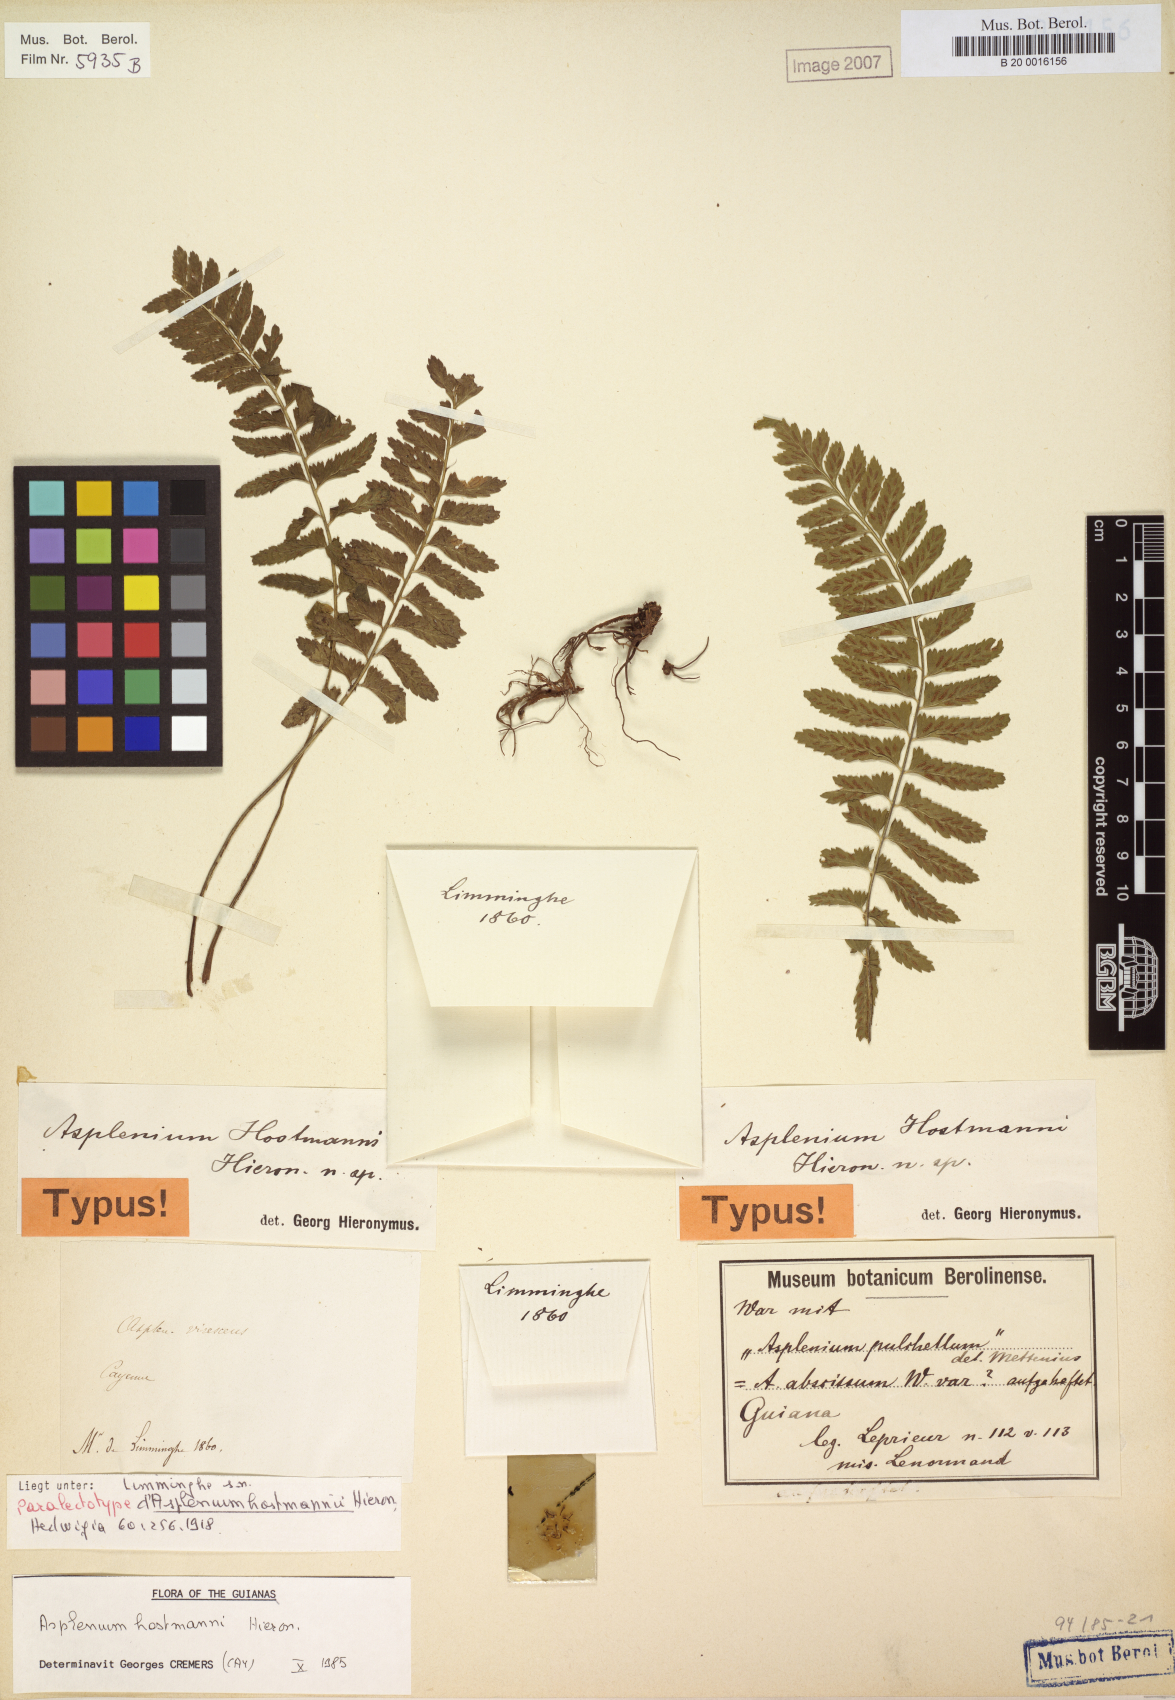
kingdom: Plantae
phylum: Tracheophyta
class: Polypodiopsida
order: Polypodiales
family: Aspleniaceae
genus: Asplenium
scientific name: Asplenium hostmannii
